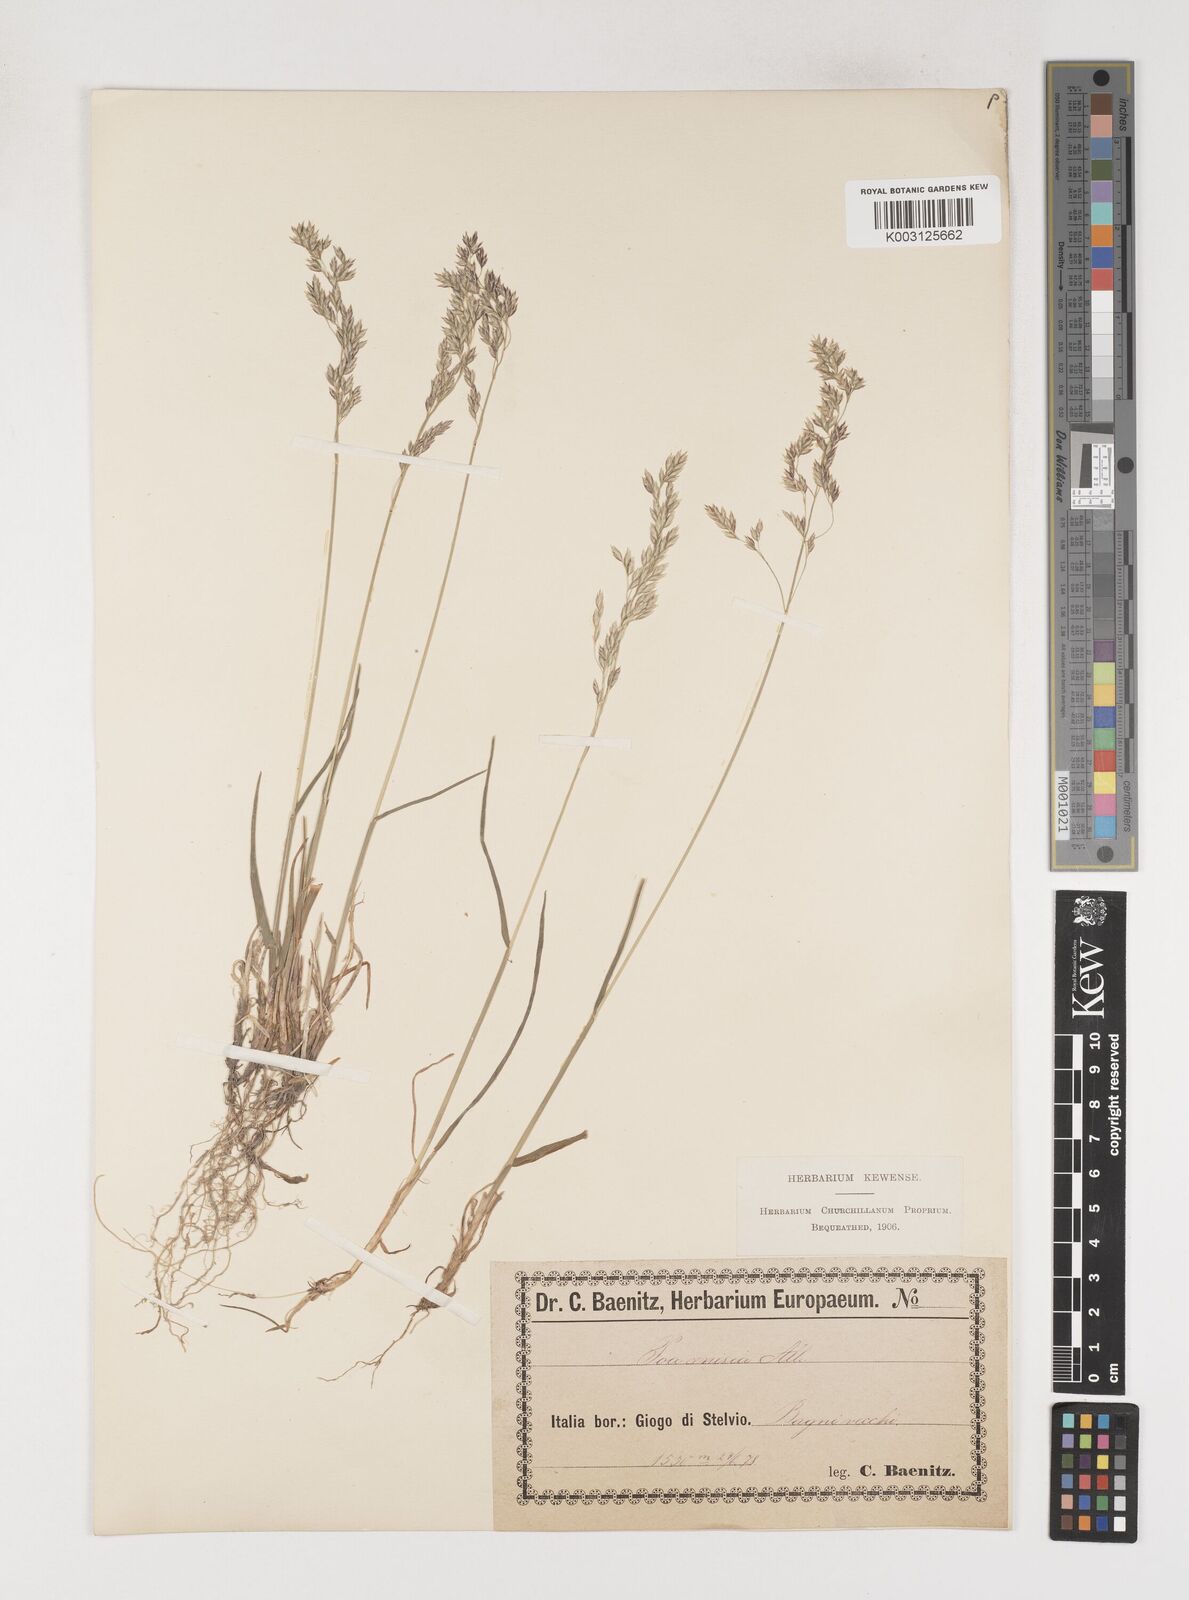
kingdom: Plantae
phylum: Tracheophyta
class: Liliopsida
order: Poales
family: Poaceae
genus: Poa
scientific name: Poa
